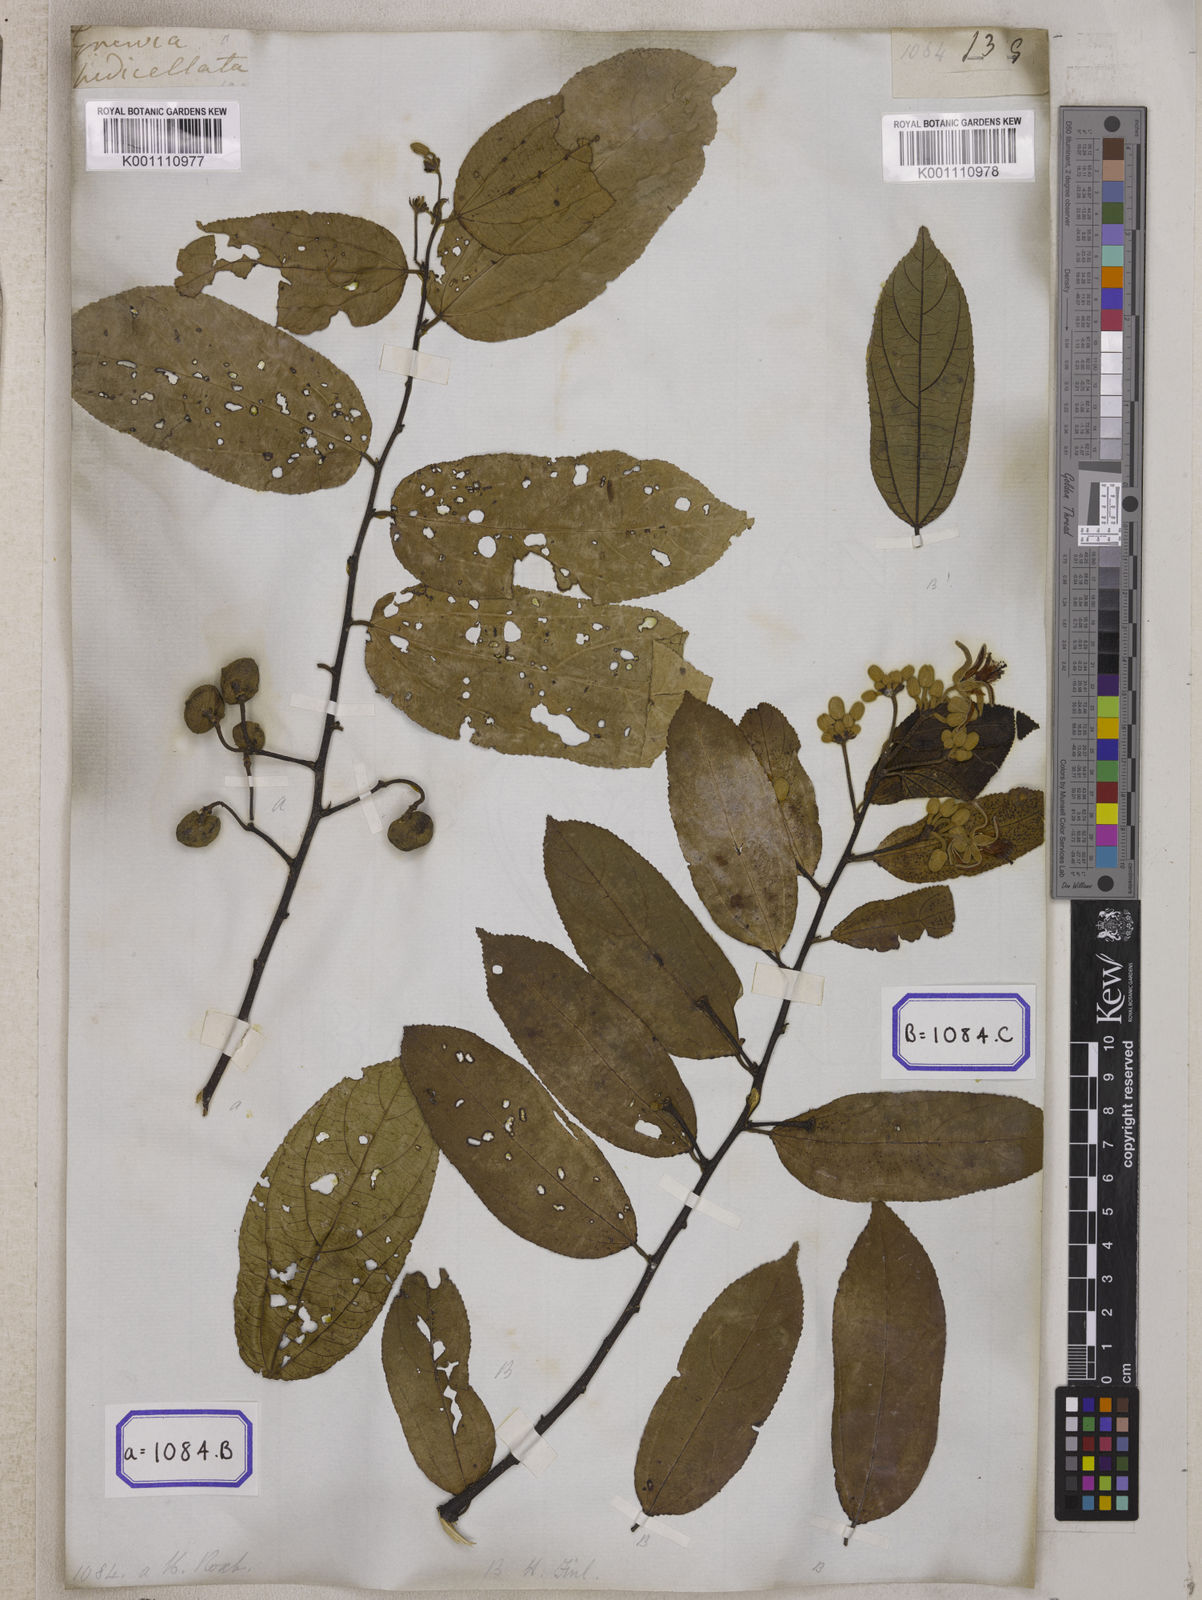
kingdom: Plantae
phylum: Tracheophyta
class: Magnoliopsida
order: Malvales
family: Malvaceae
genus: Grewia
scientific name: Grewia
